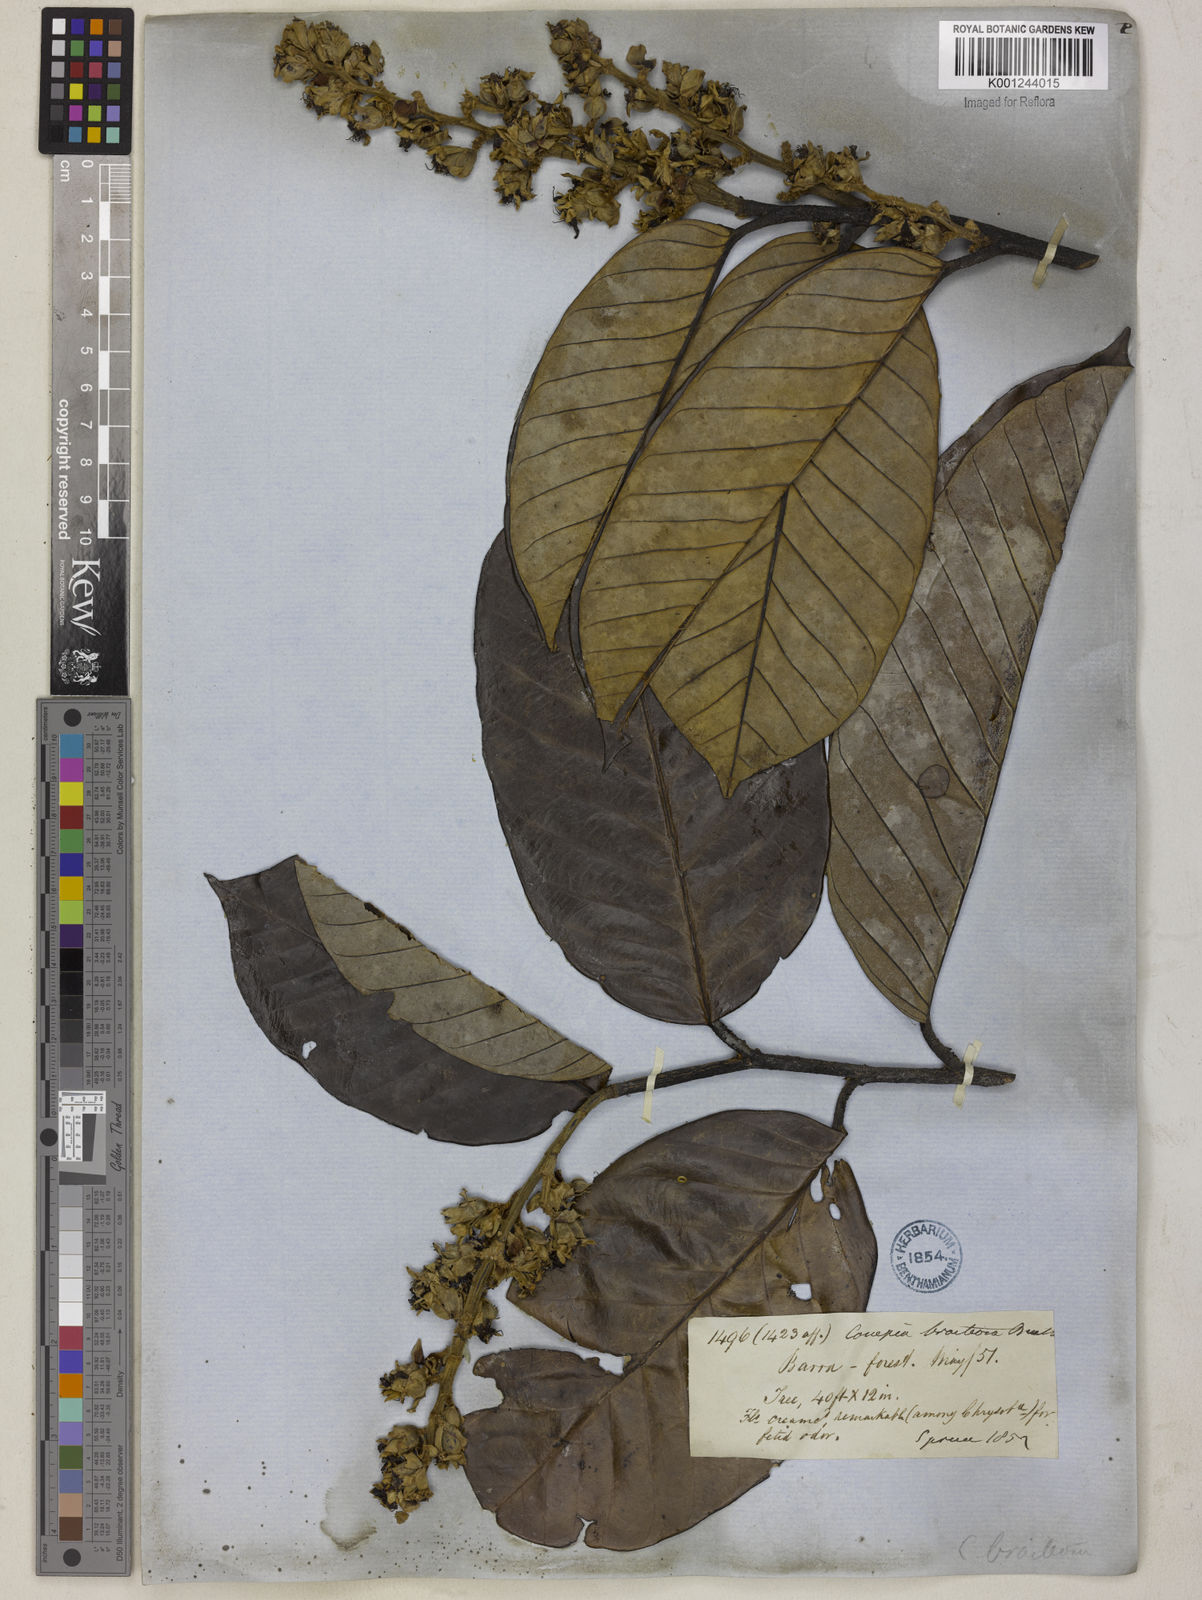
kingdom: Plantae
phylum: Tracheophyta
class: Magnoliopsida
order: Malpighiales
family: Chrysobalanaceae
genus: Couepia
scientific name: Couepia bracteosa
